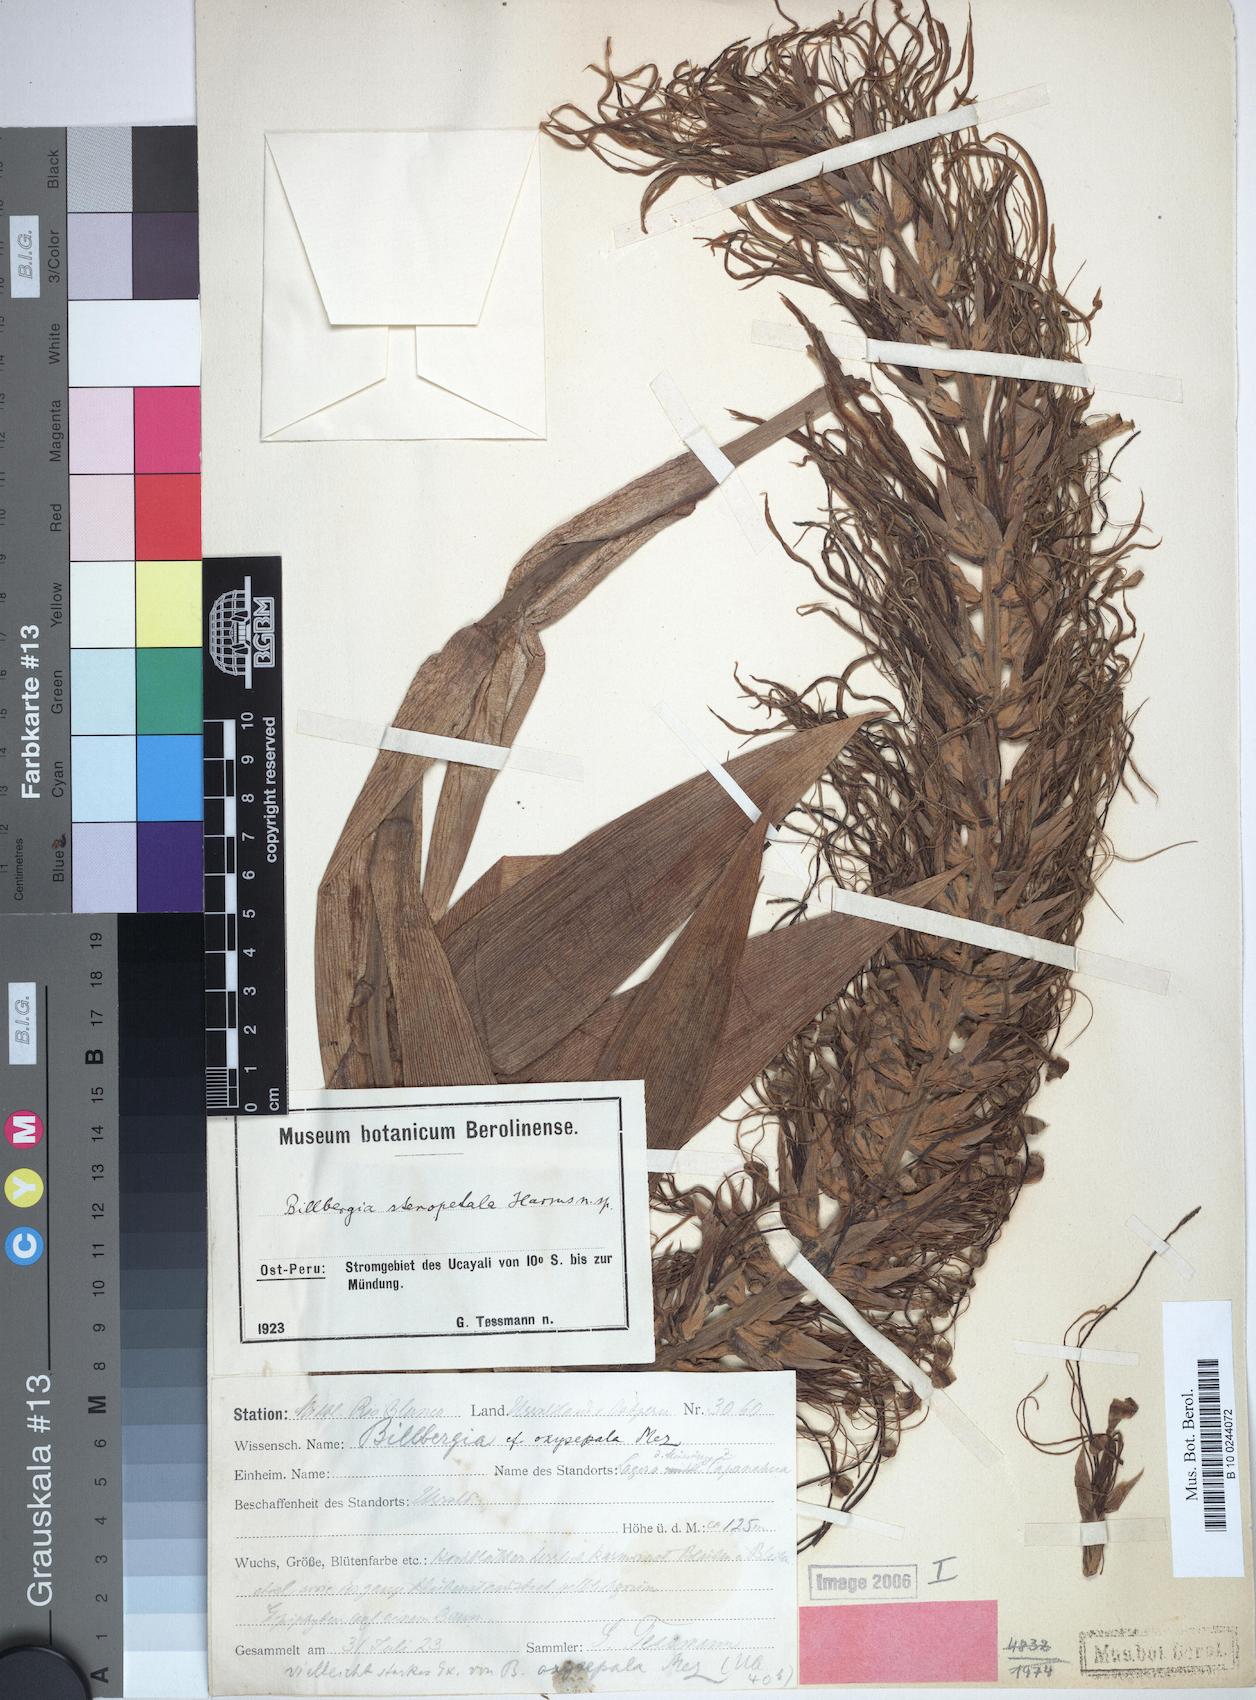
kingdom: Plantae
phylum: Tracheophyta
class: Liliopsida
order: Poales
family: Bromeliaceae
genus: Billbergia
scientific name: Billbergia stenopetala
